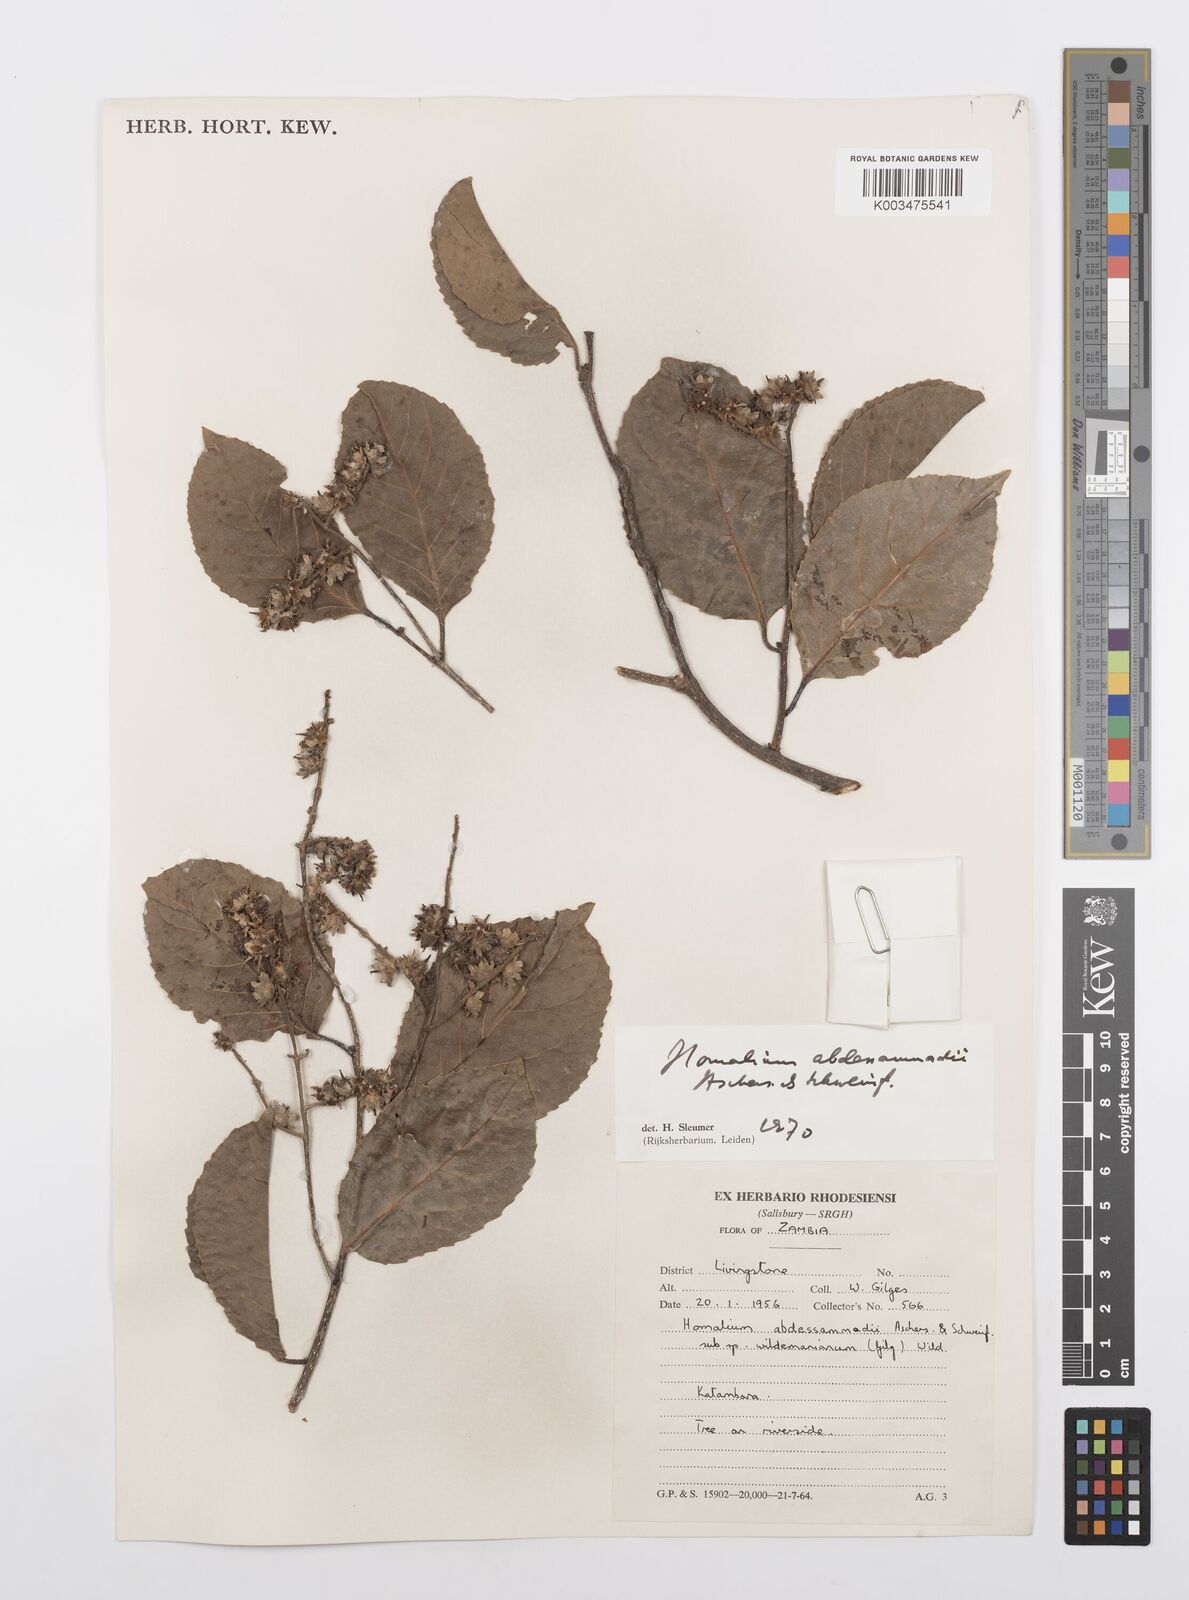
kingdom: Plantae
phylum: Tracheophyta
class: Magnoliopsida
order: Malpighiales
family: Salicaceae
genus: Homalium
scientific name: Homalium abdessammadii
